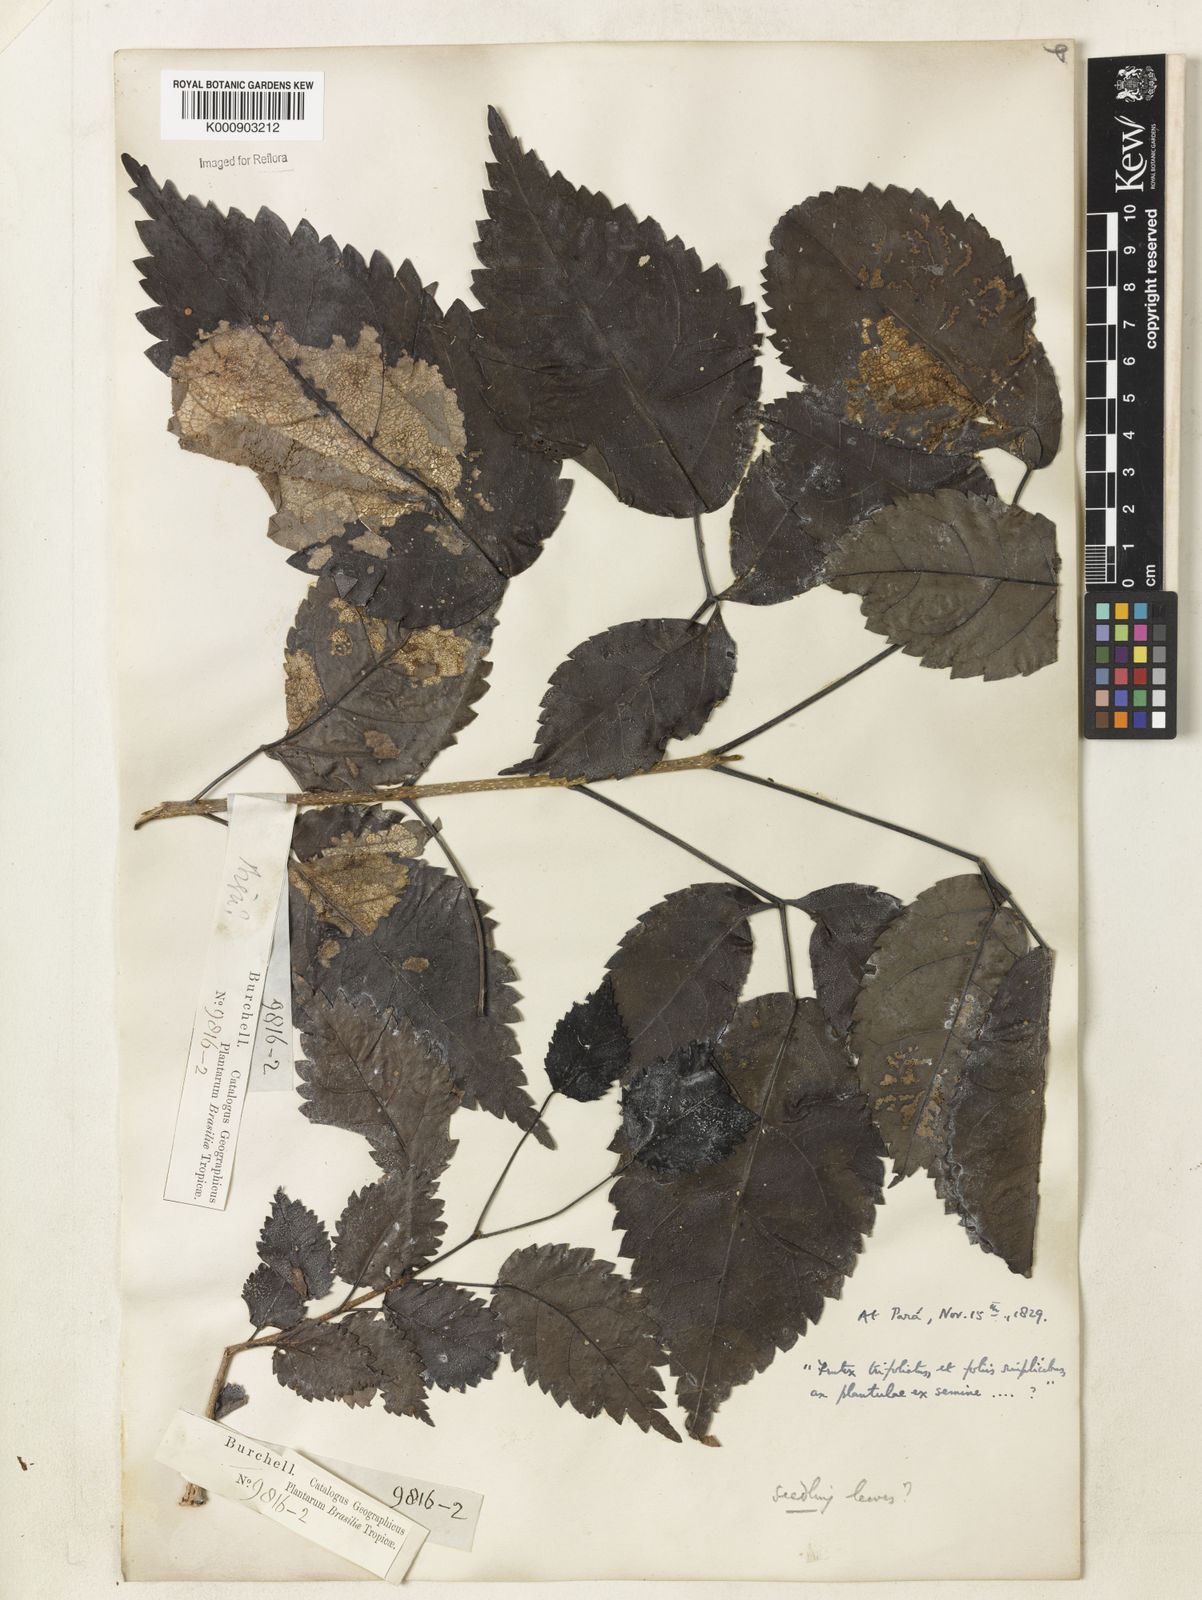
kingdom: Plantae
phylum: Tracheophyta
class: Magnoliopsida
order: Lamiales
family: Bignoniaceae
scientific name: Bignoniaceae
